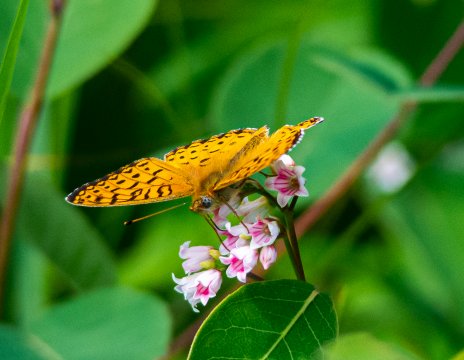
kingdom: Animalia
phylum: Arthropoda
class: Insecta
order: Lepidoptera
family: Nymphalidae
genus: Speyeria
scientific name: Speyeria atlantis
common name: Northwestern Fritillary
